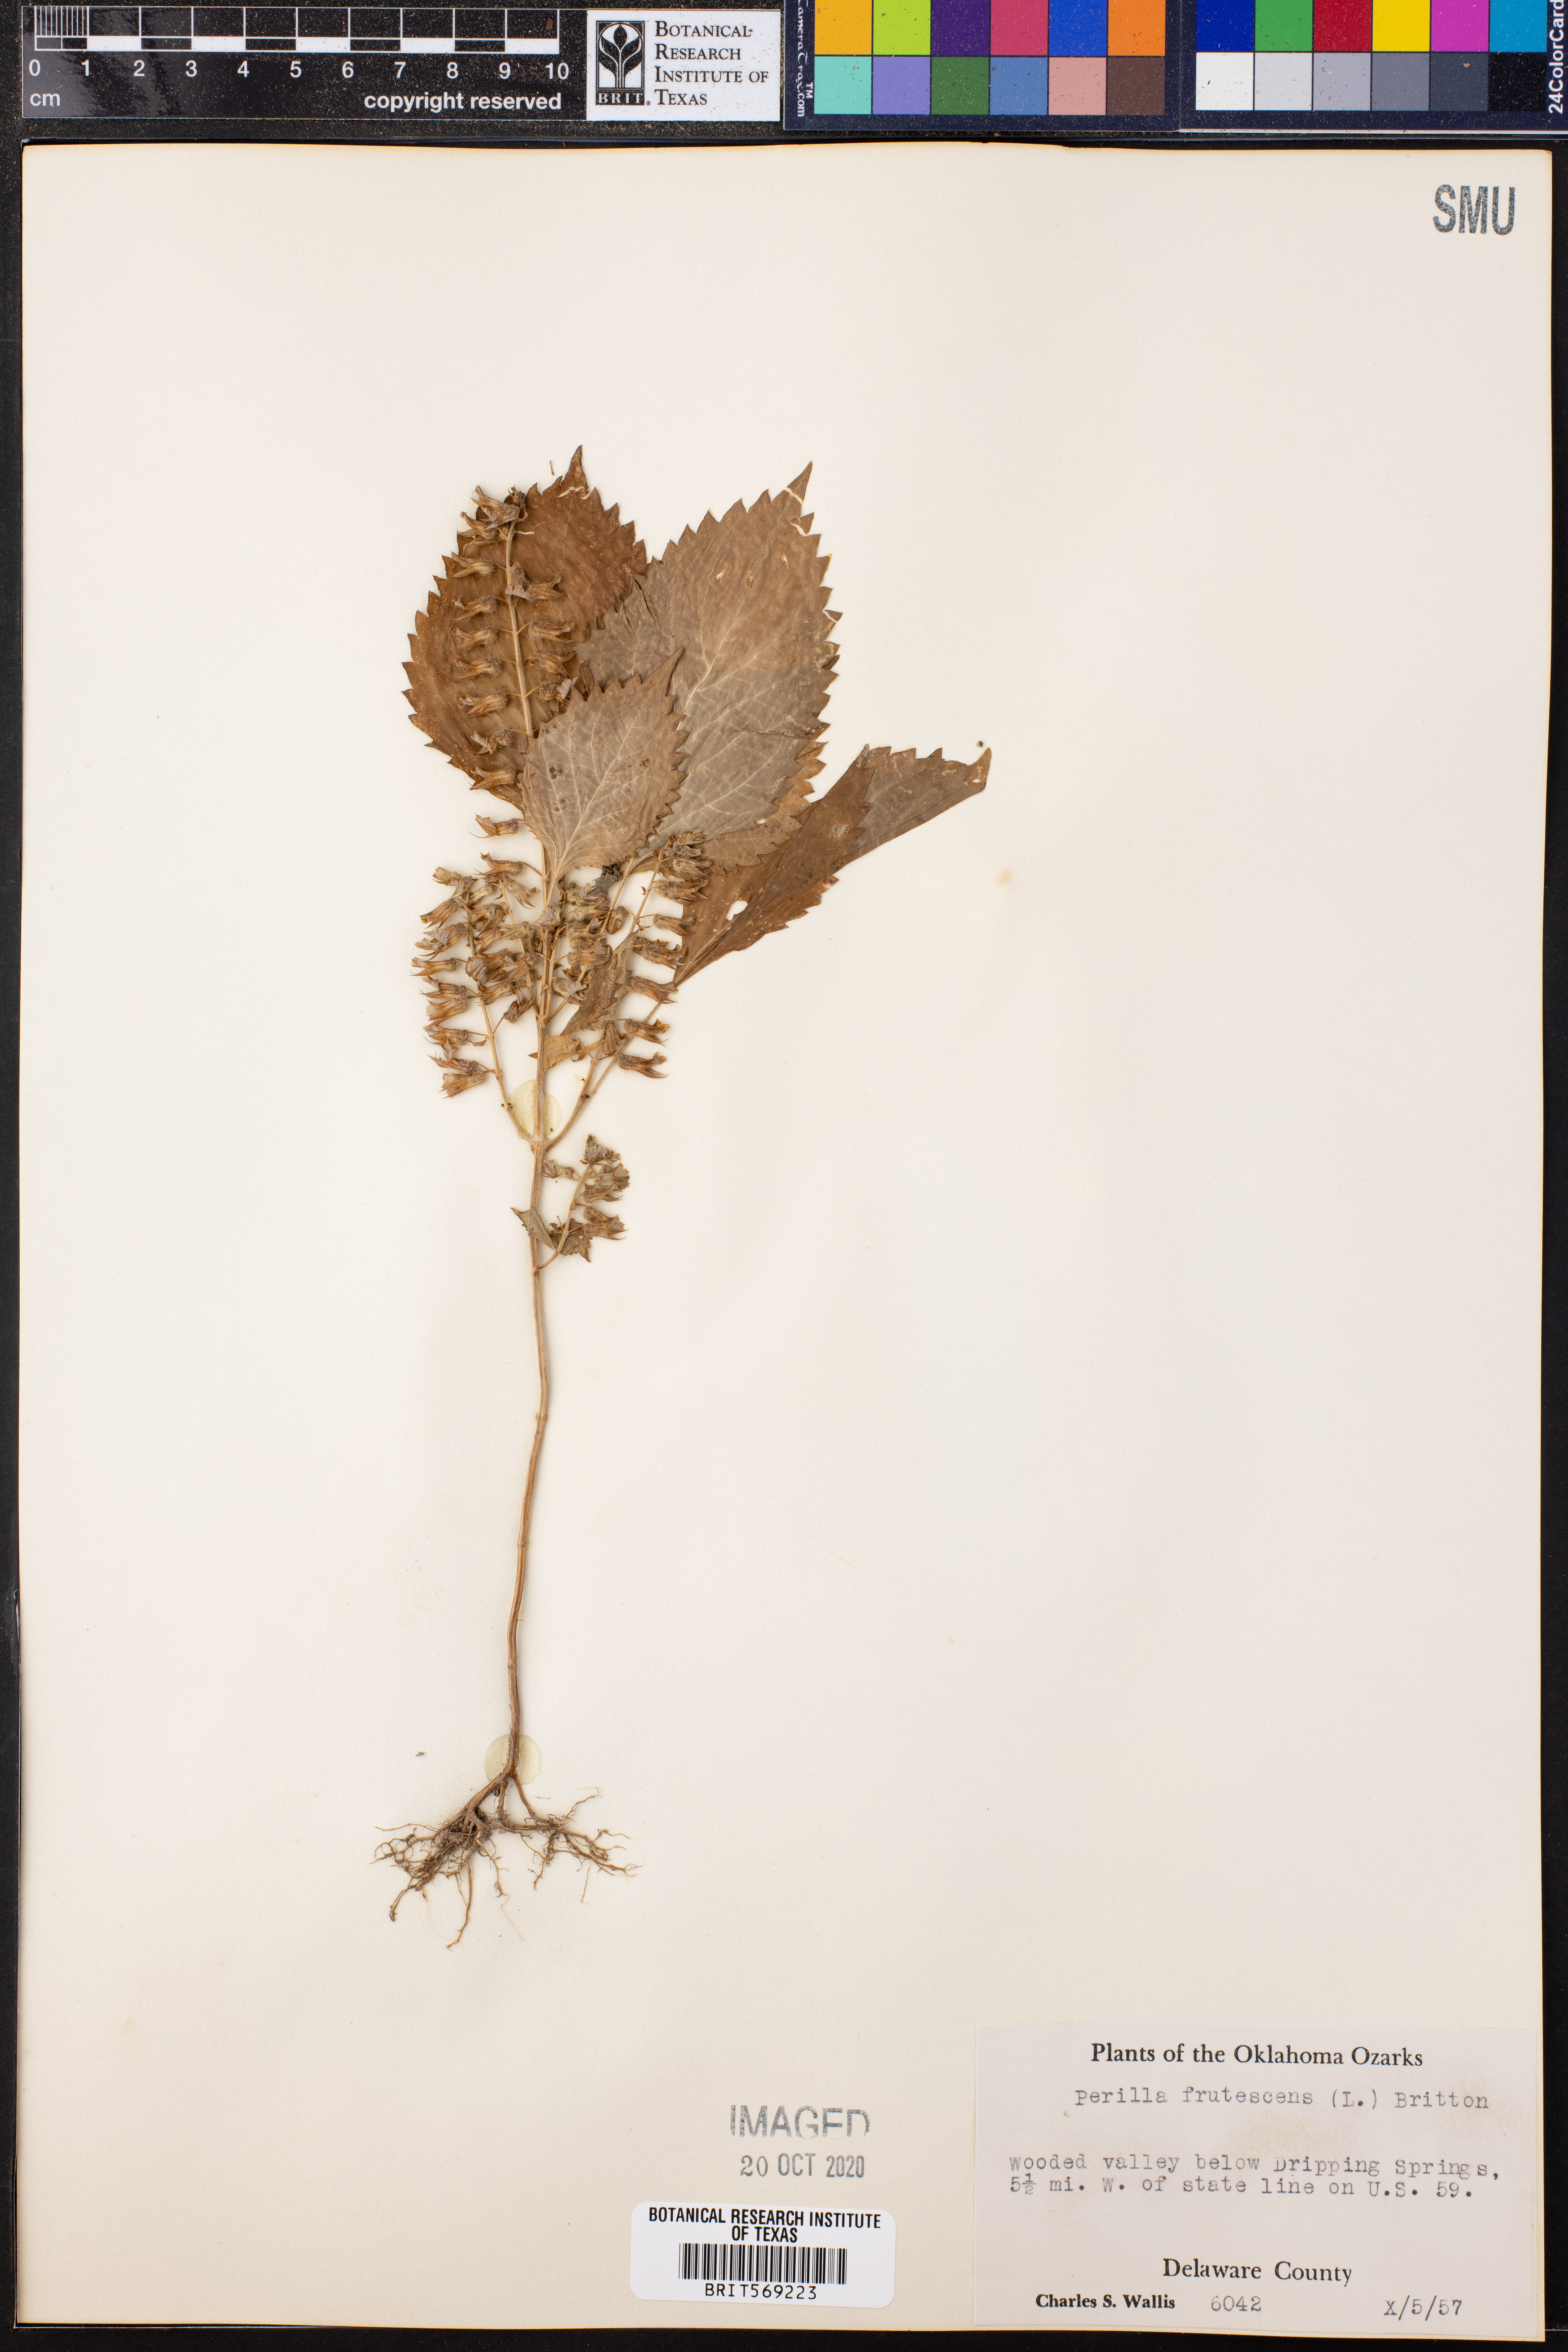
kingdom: Plantae
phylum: Tracheophyta
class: Magnoliopsida
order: Lamiales
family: Lamiaceae
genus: Perilla
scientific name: Perilla frutescens
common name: Perilla
